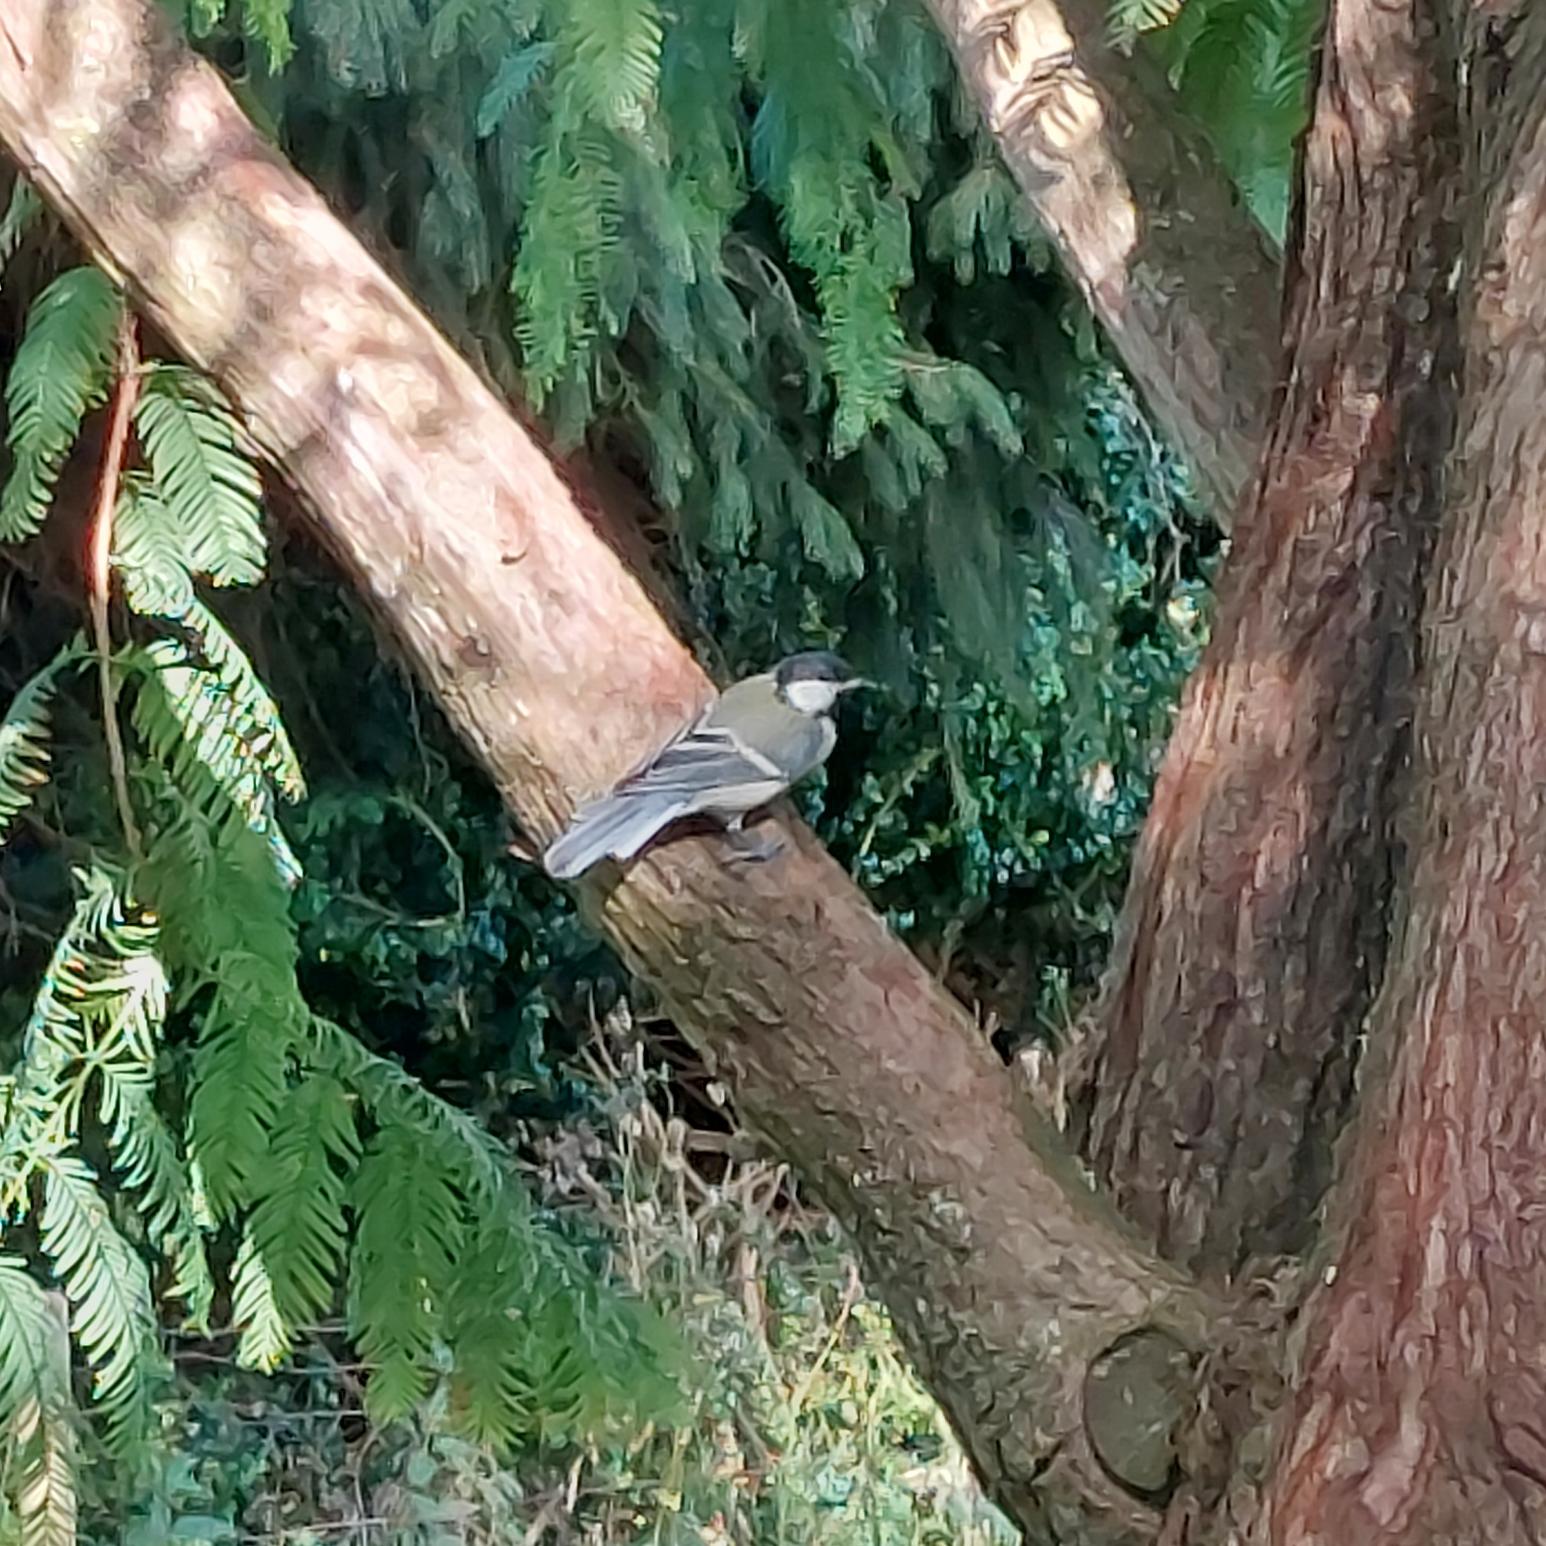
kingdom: Animalia
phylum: Chordata
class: Aves
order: Passeriformes
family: Paridae
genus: Parus
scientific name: Parus major
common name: Musvit
